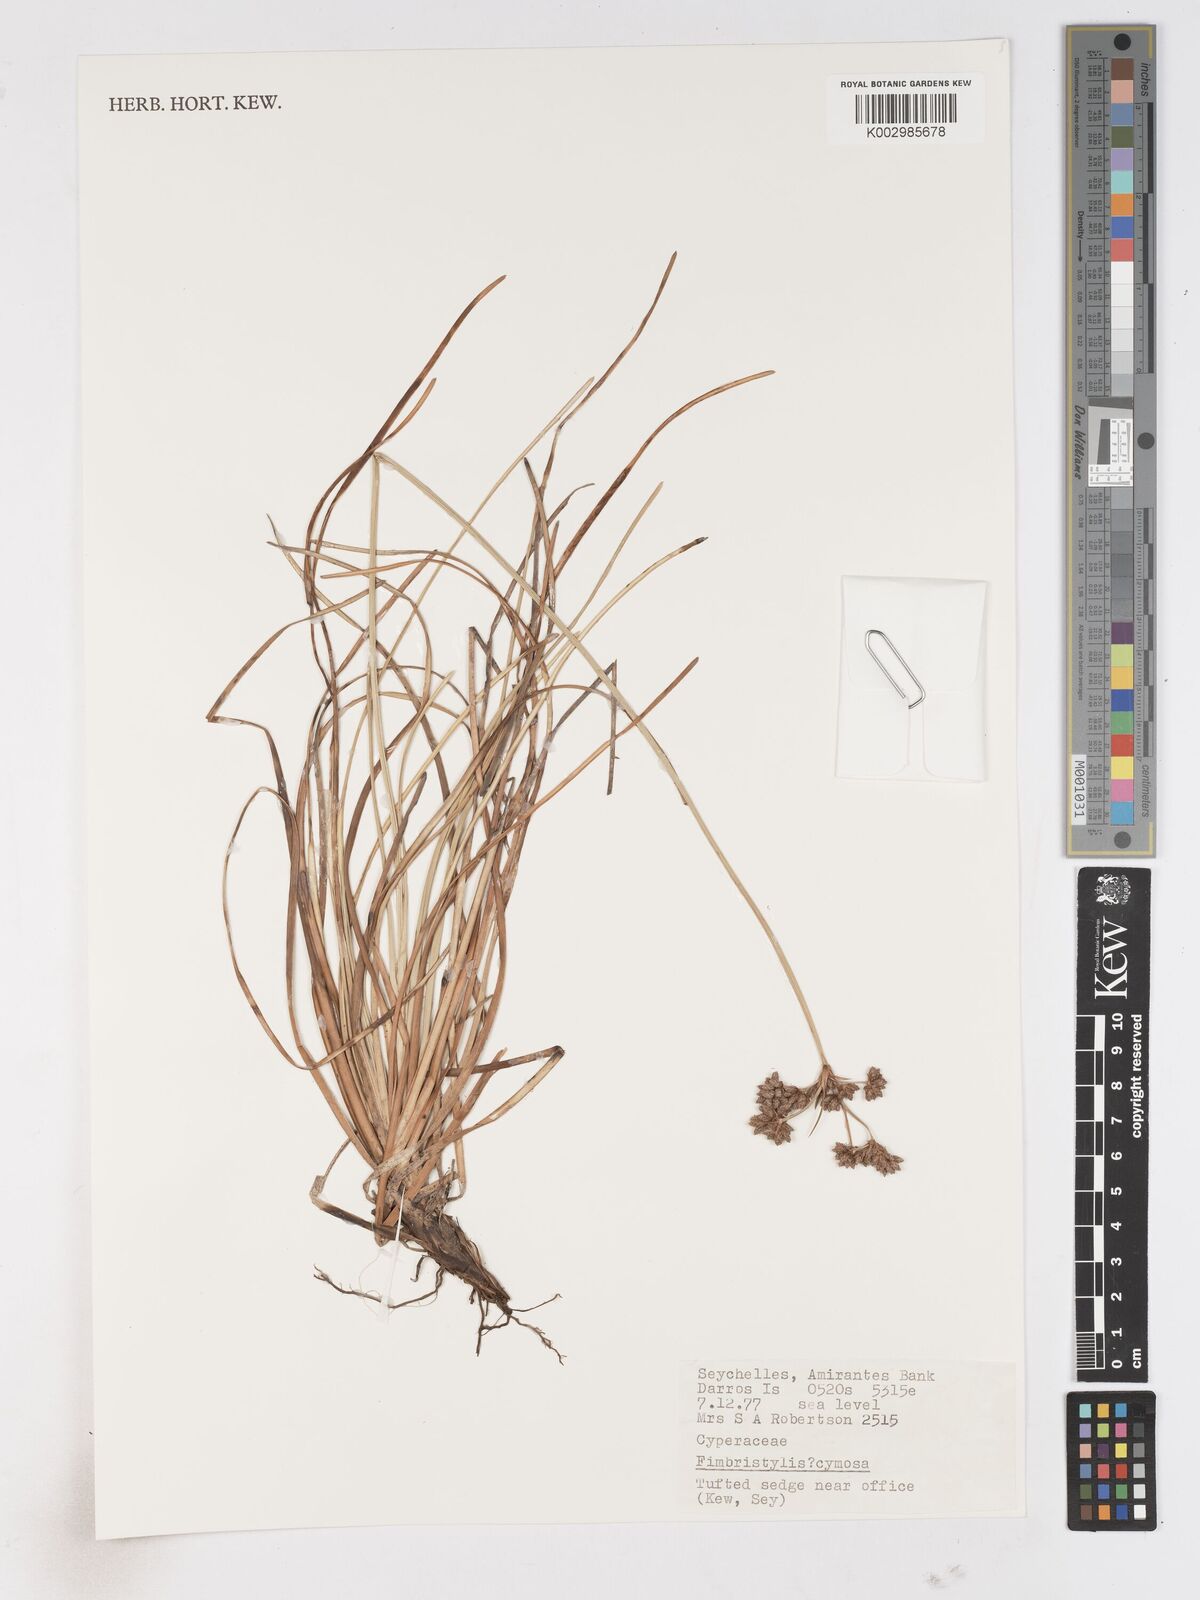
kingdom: Plantae
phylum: Tracheophyta
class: Liliopsida
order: Poales
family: Cyperaceae
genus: Fimbristylis
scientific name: Fimbristylis cymosa
